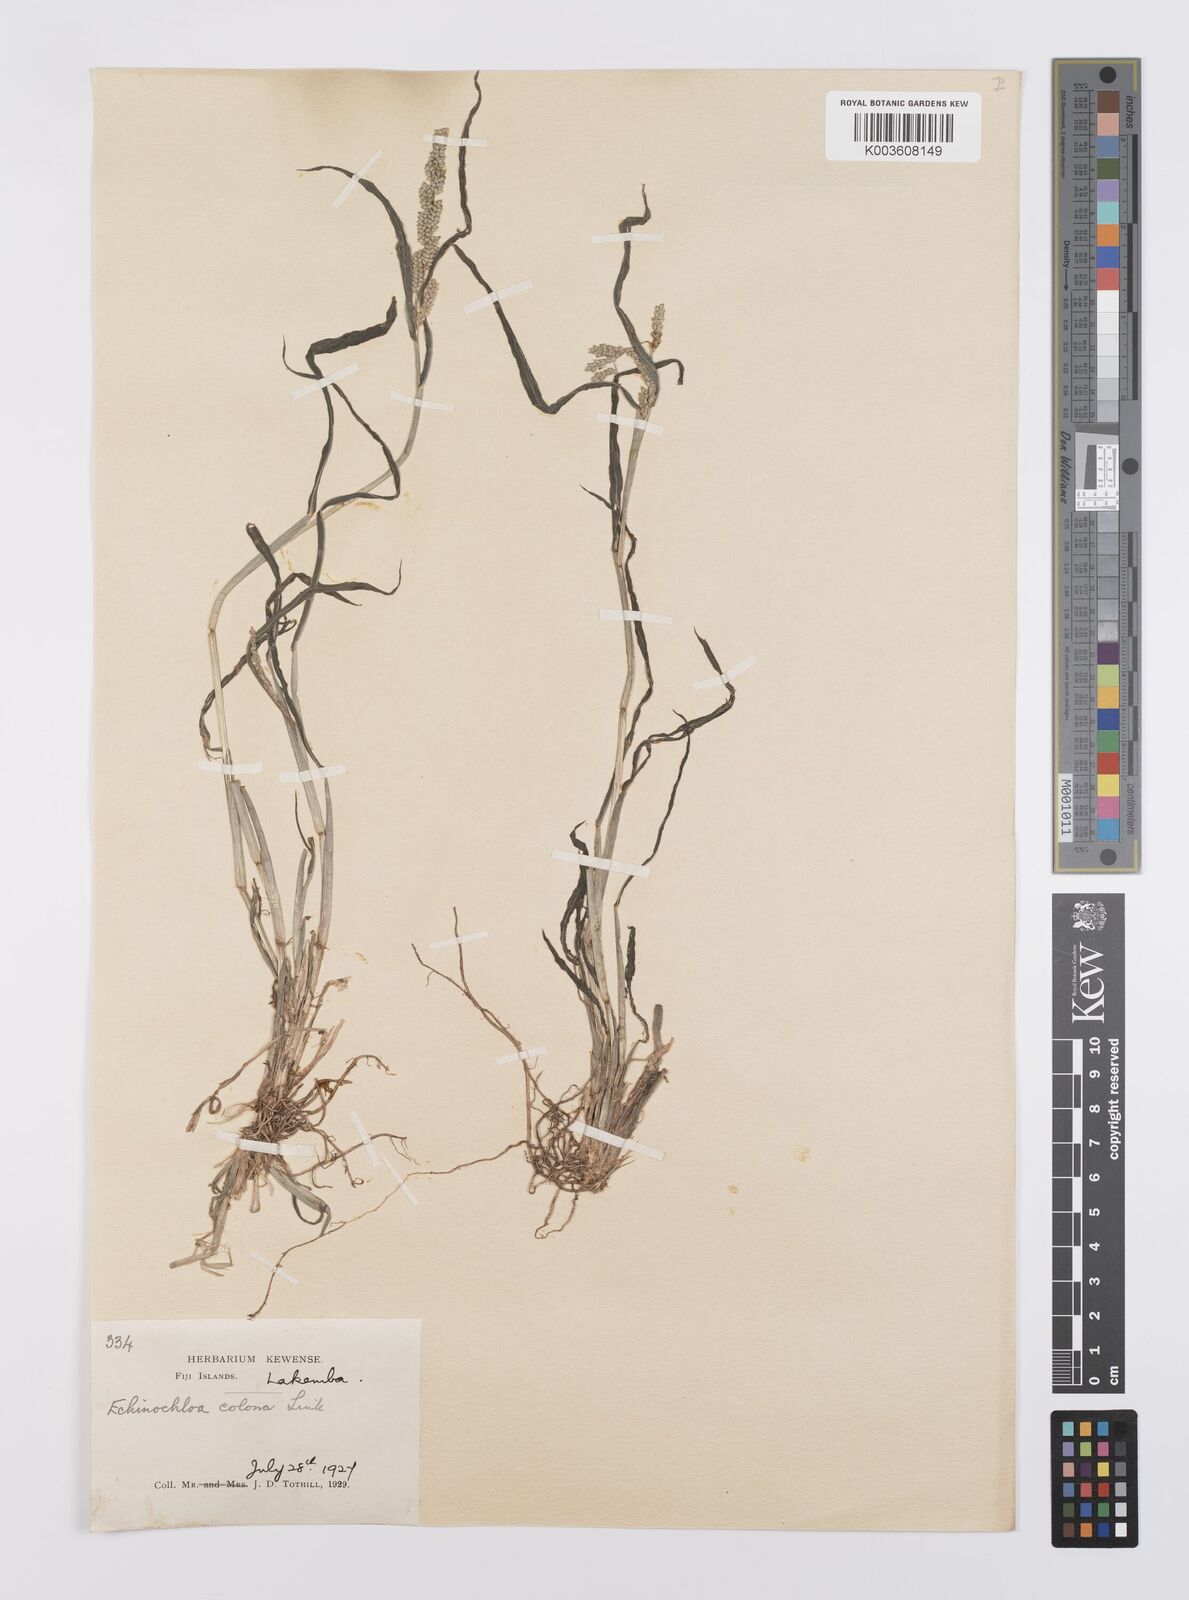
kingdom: Plantae
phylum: Tracheophyta
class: Liliopsida
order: Poales
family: Poaceae
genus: Echinochloa
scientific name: Echinochloa colonum
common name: Jungle rice
